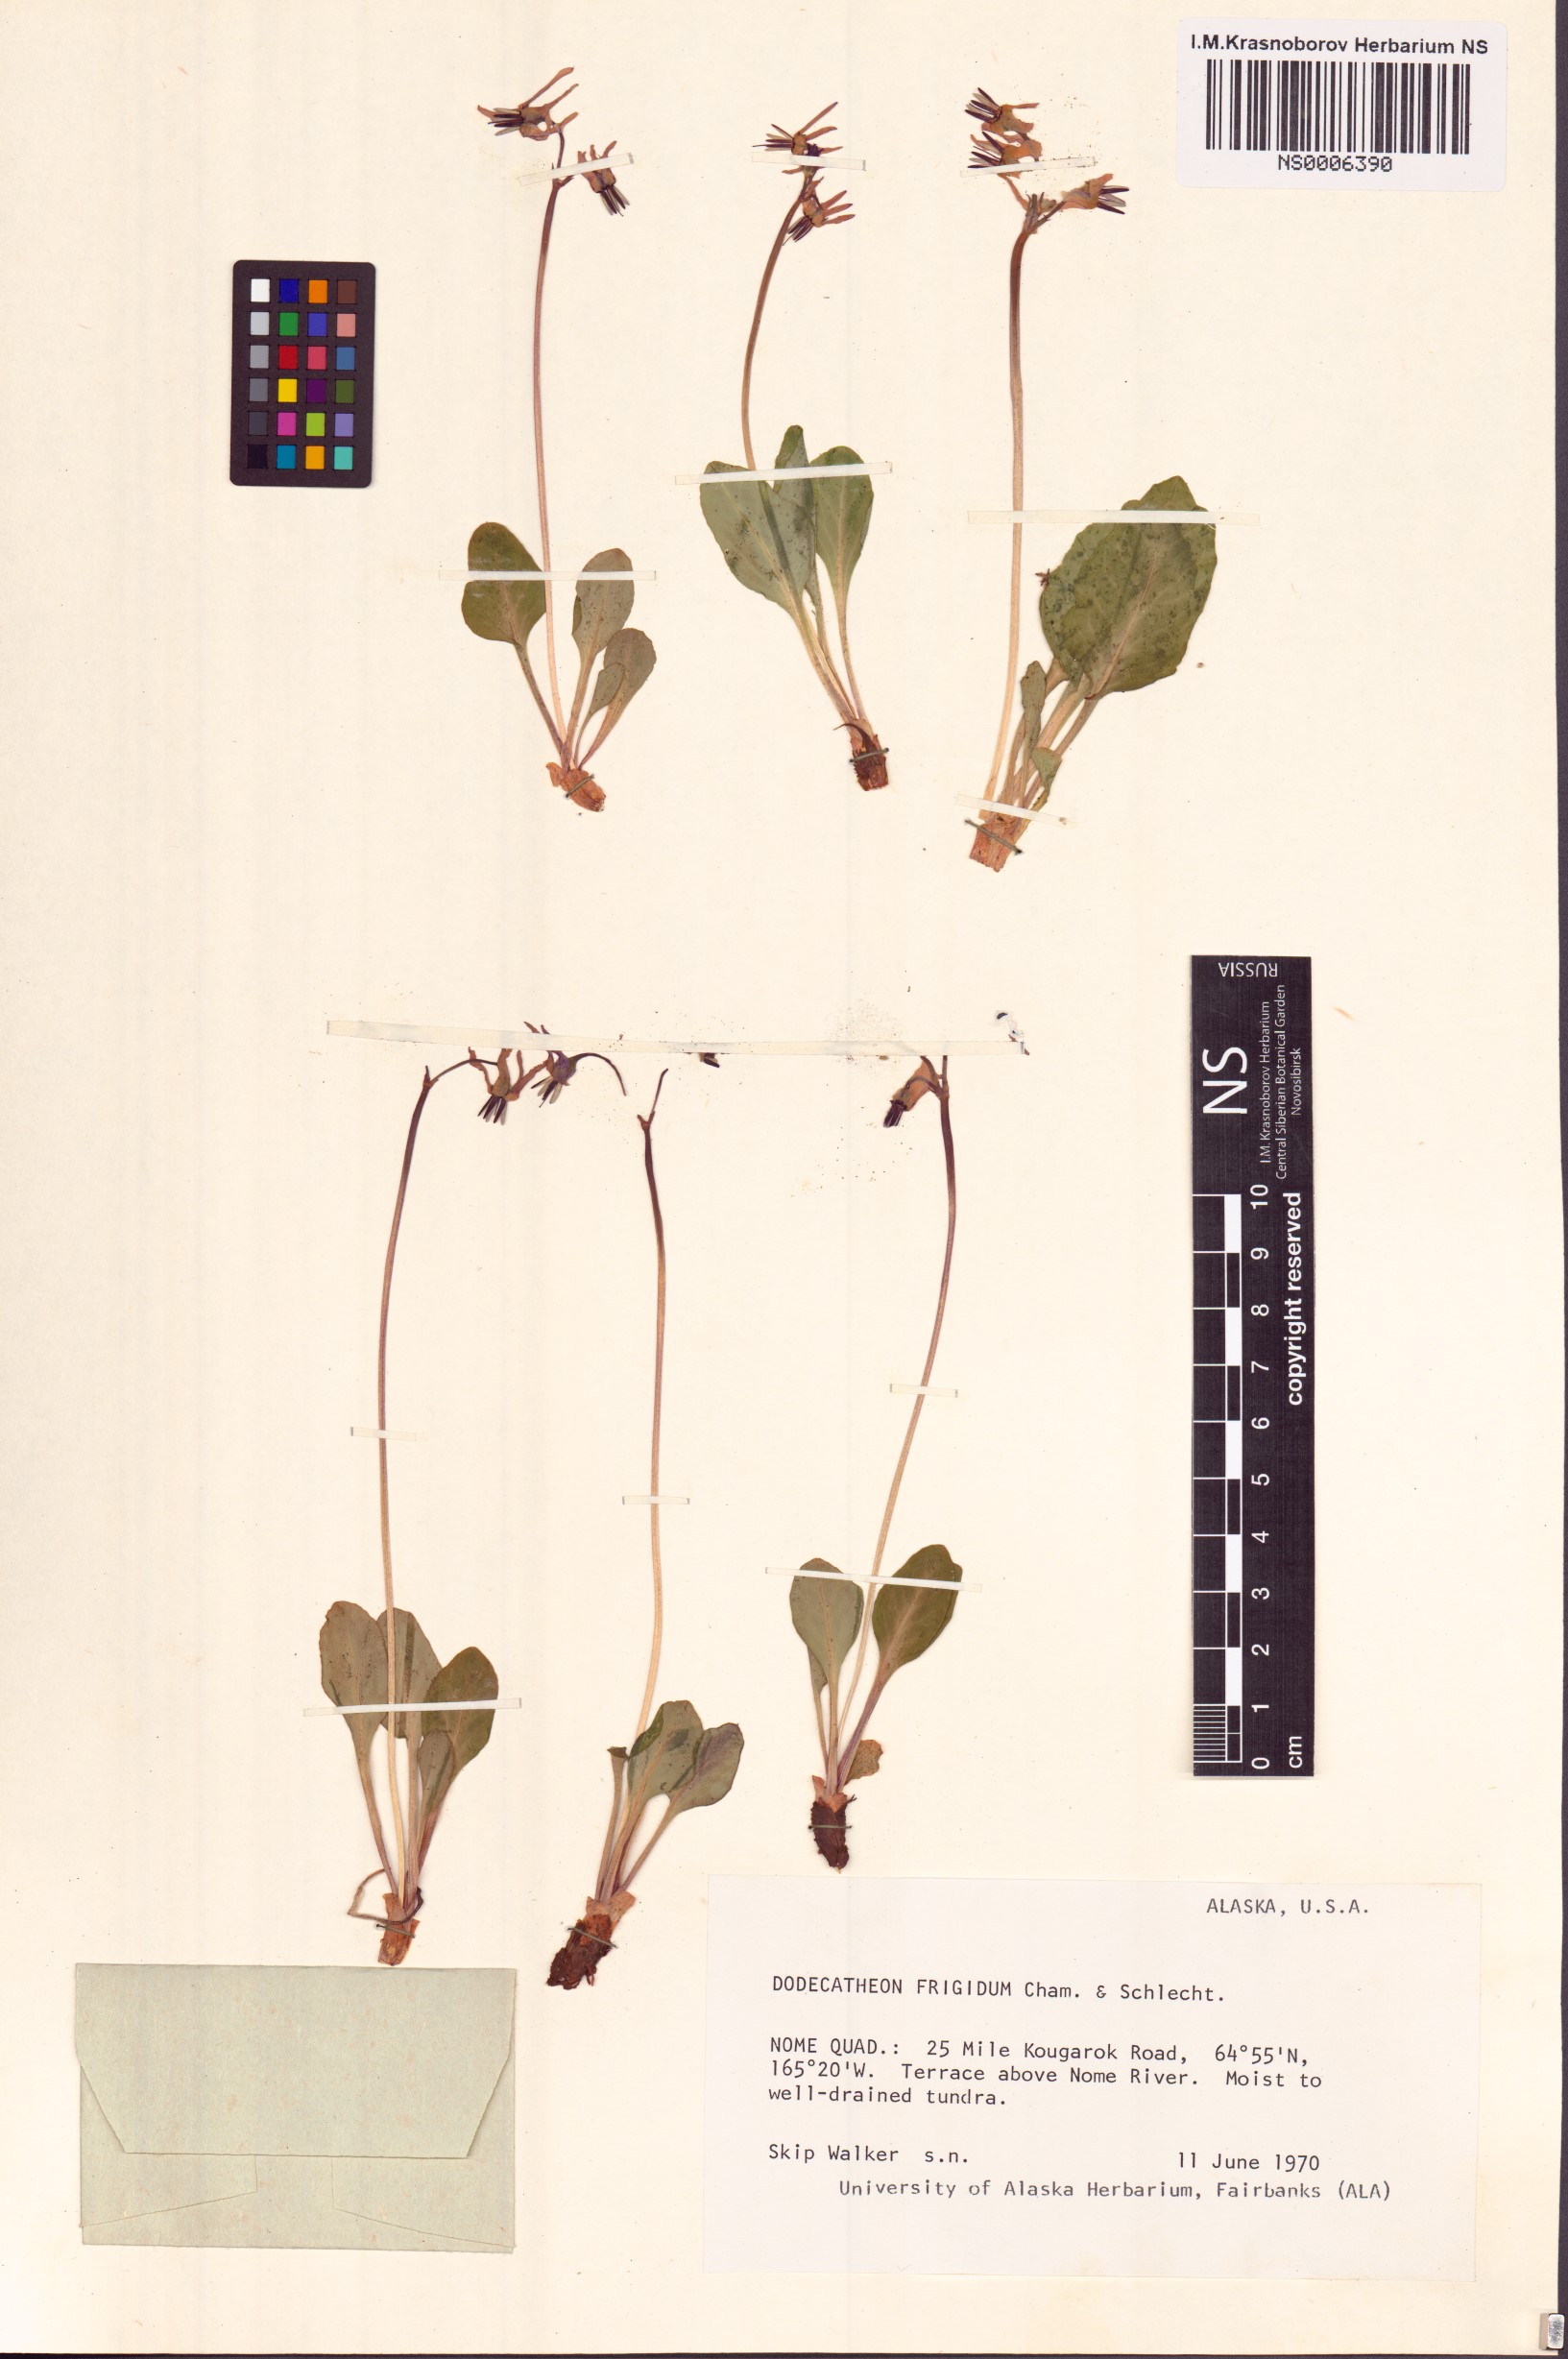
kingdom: Plantae
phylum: Tracheophyta
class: Magnoliopsida
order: Ericales
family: Primulaceae
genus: Dodecatheon
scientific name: Dodecatheon frigidum
